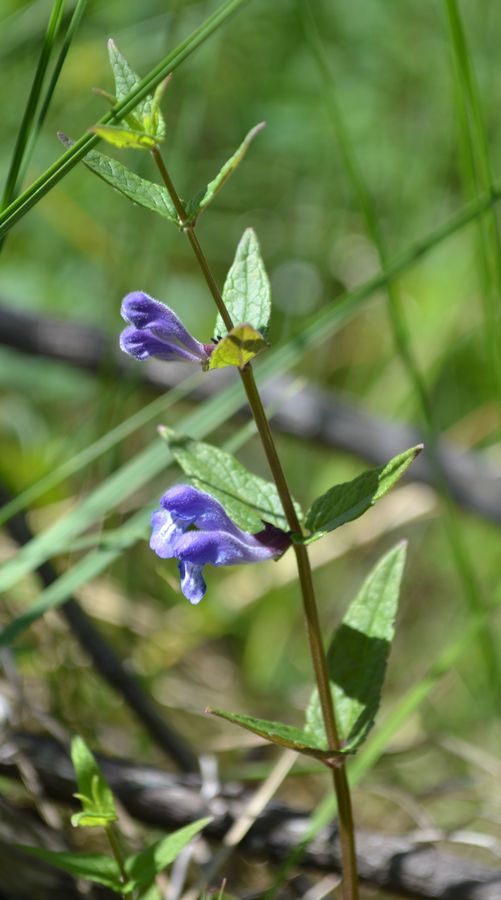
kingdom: Plantae
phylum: Tracheophyta
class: Magnoliopsida
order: Lamiales
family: Lamiaceae
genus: Scutellaria
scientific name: Scutellaria galericulata
